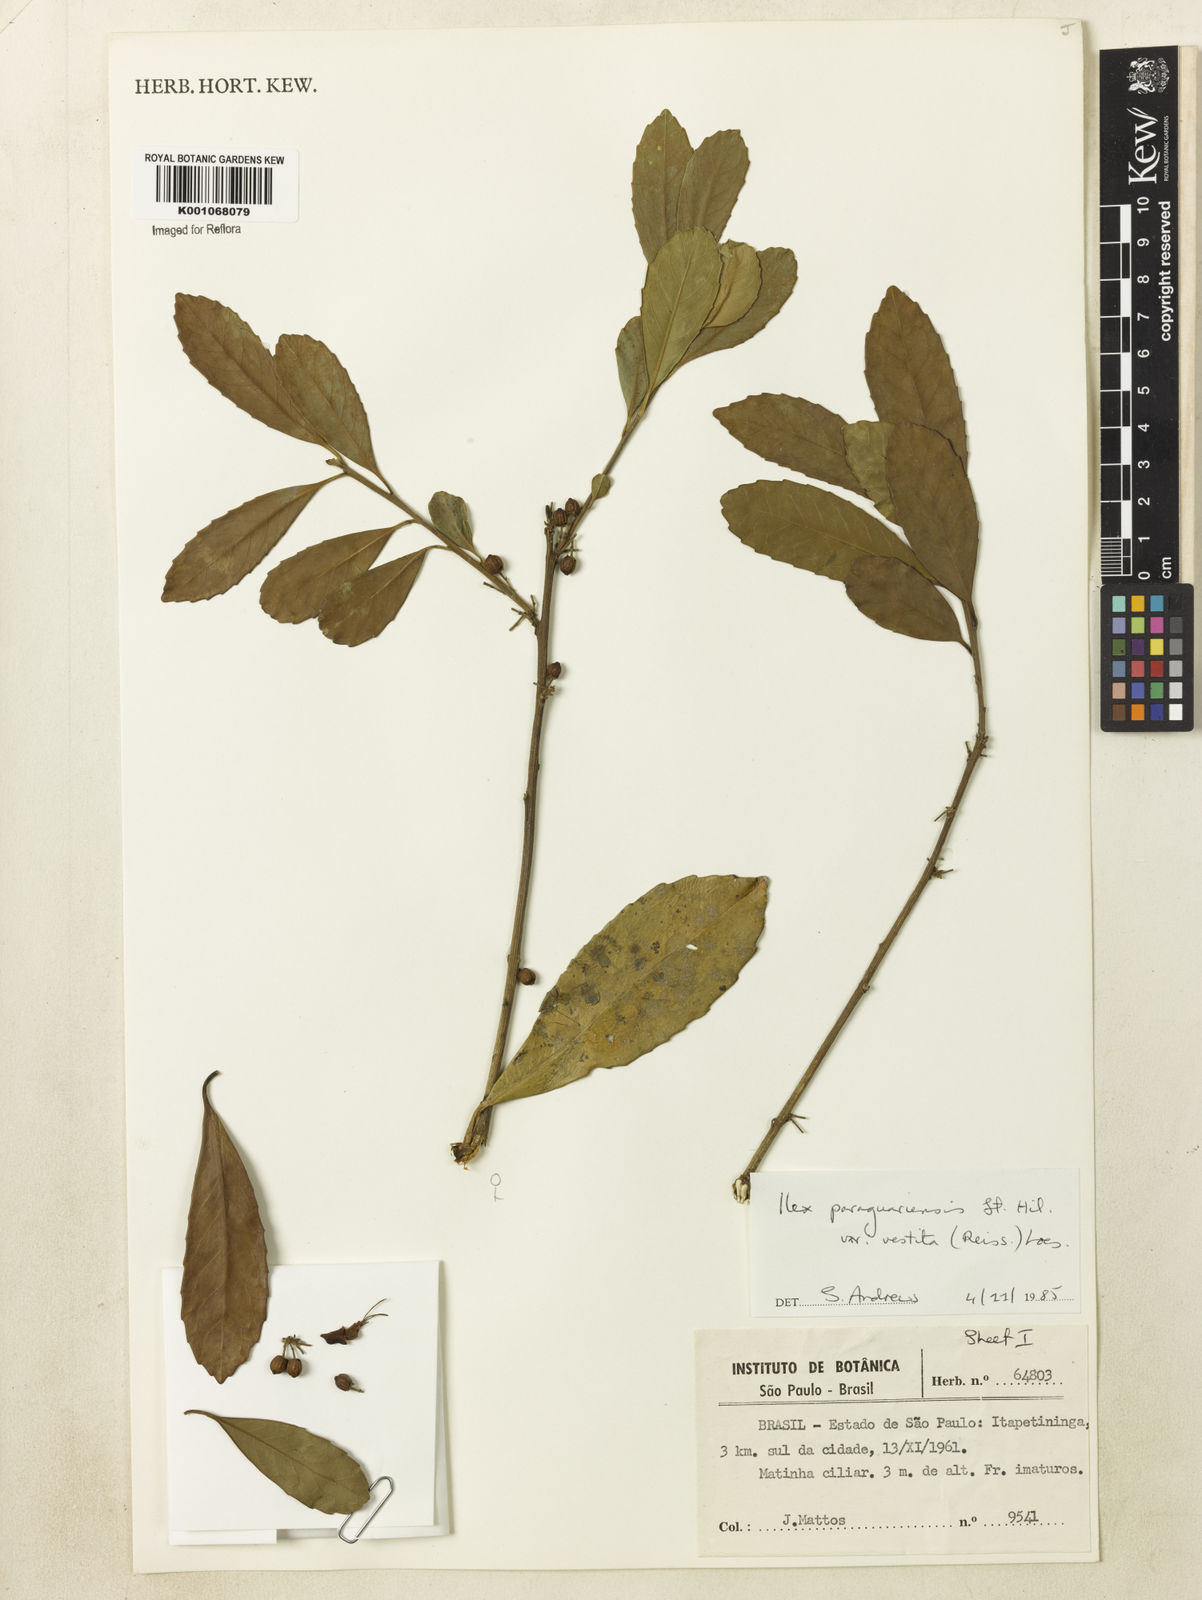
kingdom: Plantae
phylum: Tracheophyta
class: Magnoliopsida
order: Aquifoliales
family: Aquifoliaceae
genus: Ilex
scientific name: Ilex paraguariensis
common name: Paraguay tea
